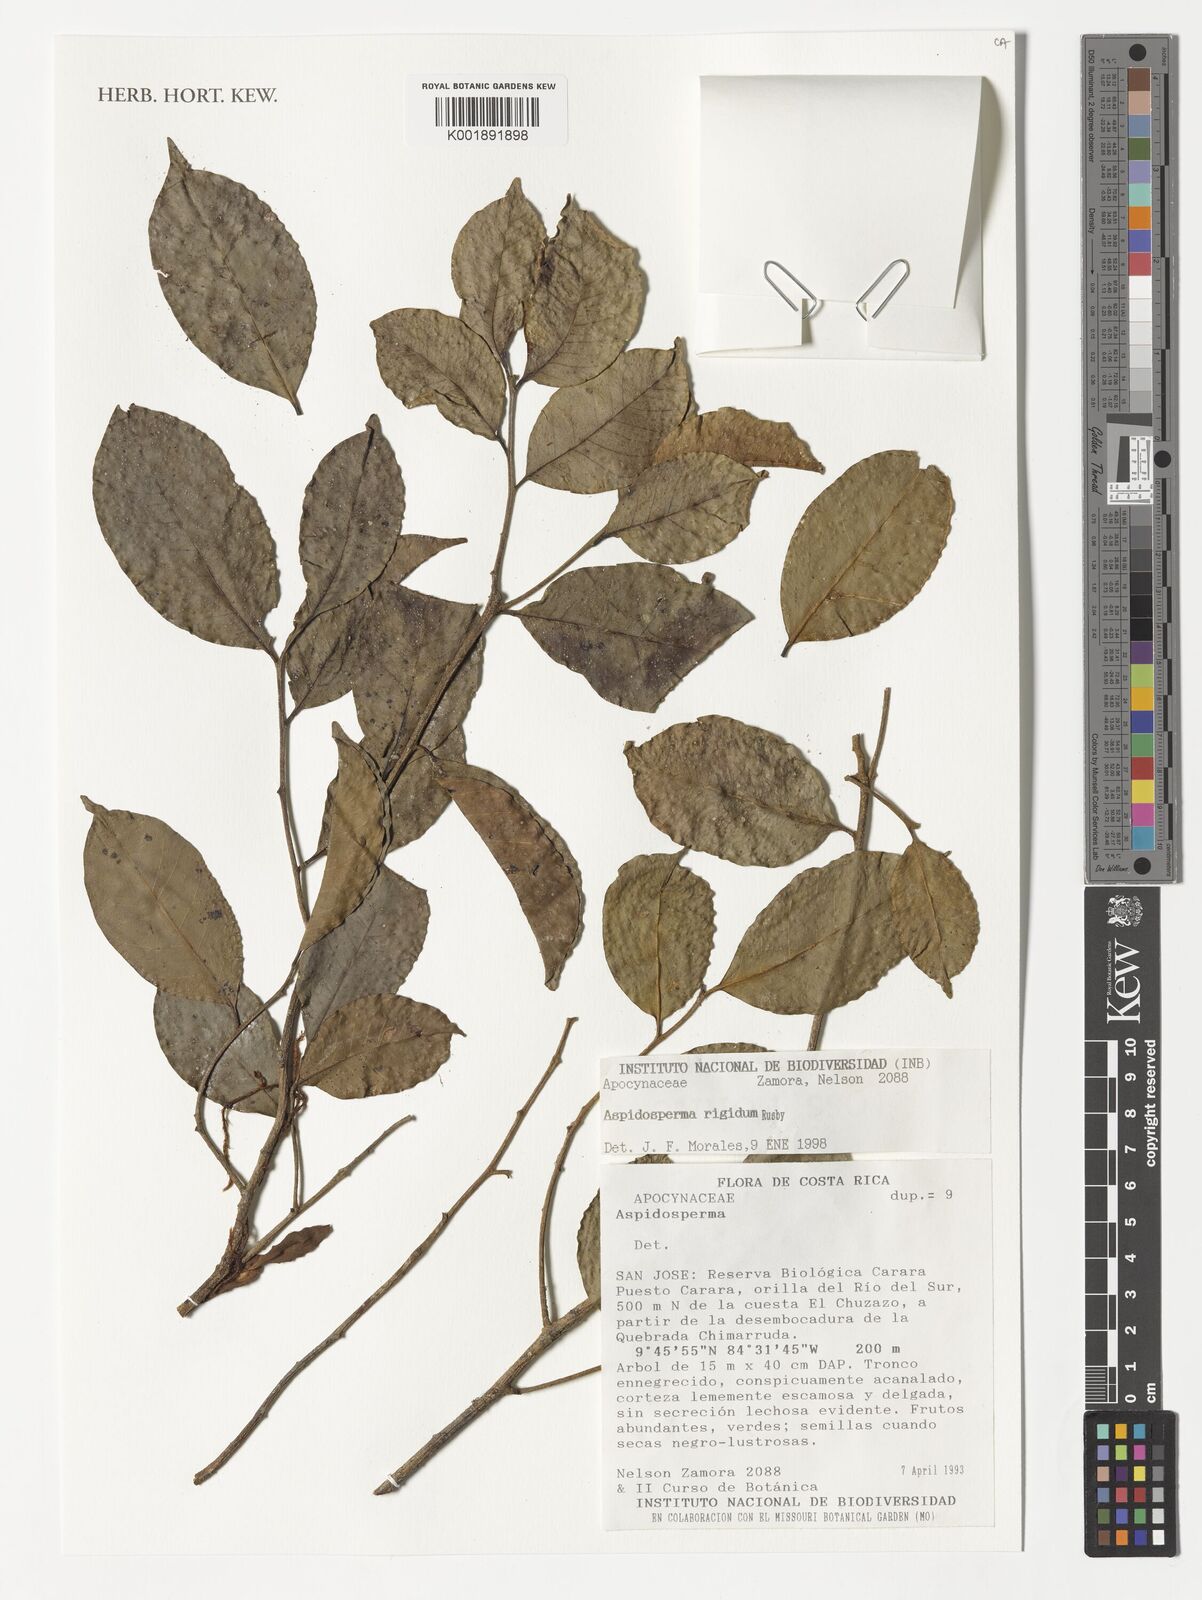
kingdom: Plantae
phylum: Tracheophyta
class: Magnoliopsida
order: Gentianales
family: Apocynaceae
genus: Aspidosperma
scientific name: Aspidosperma rigidum
